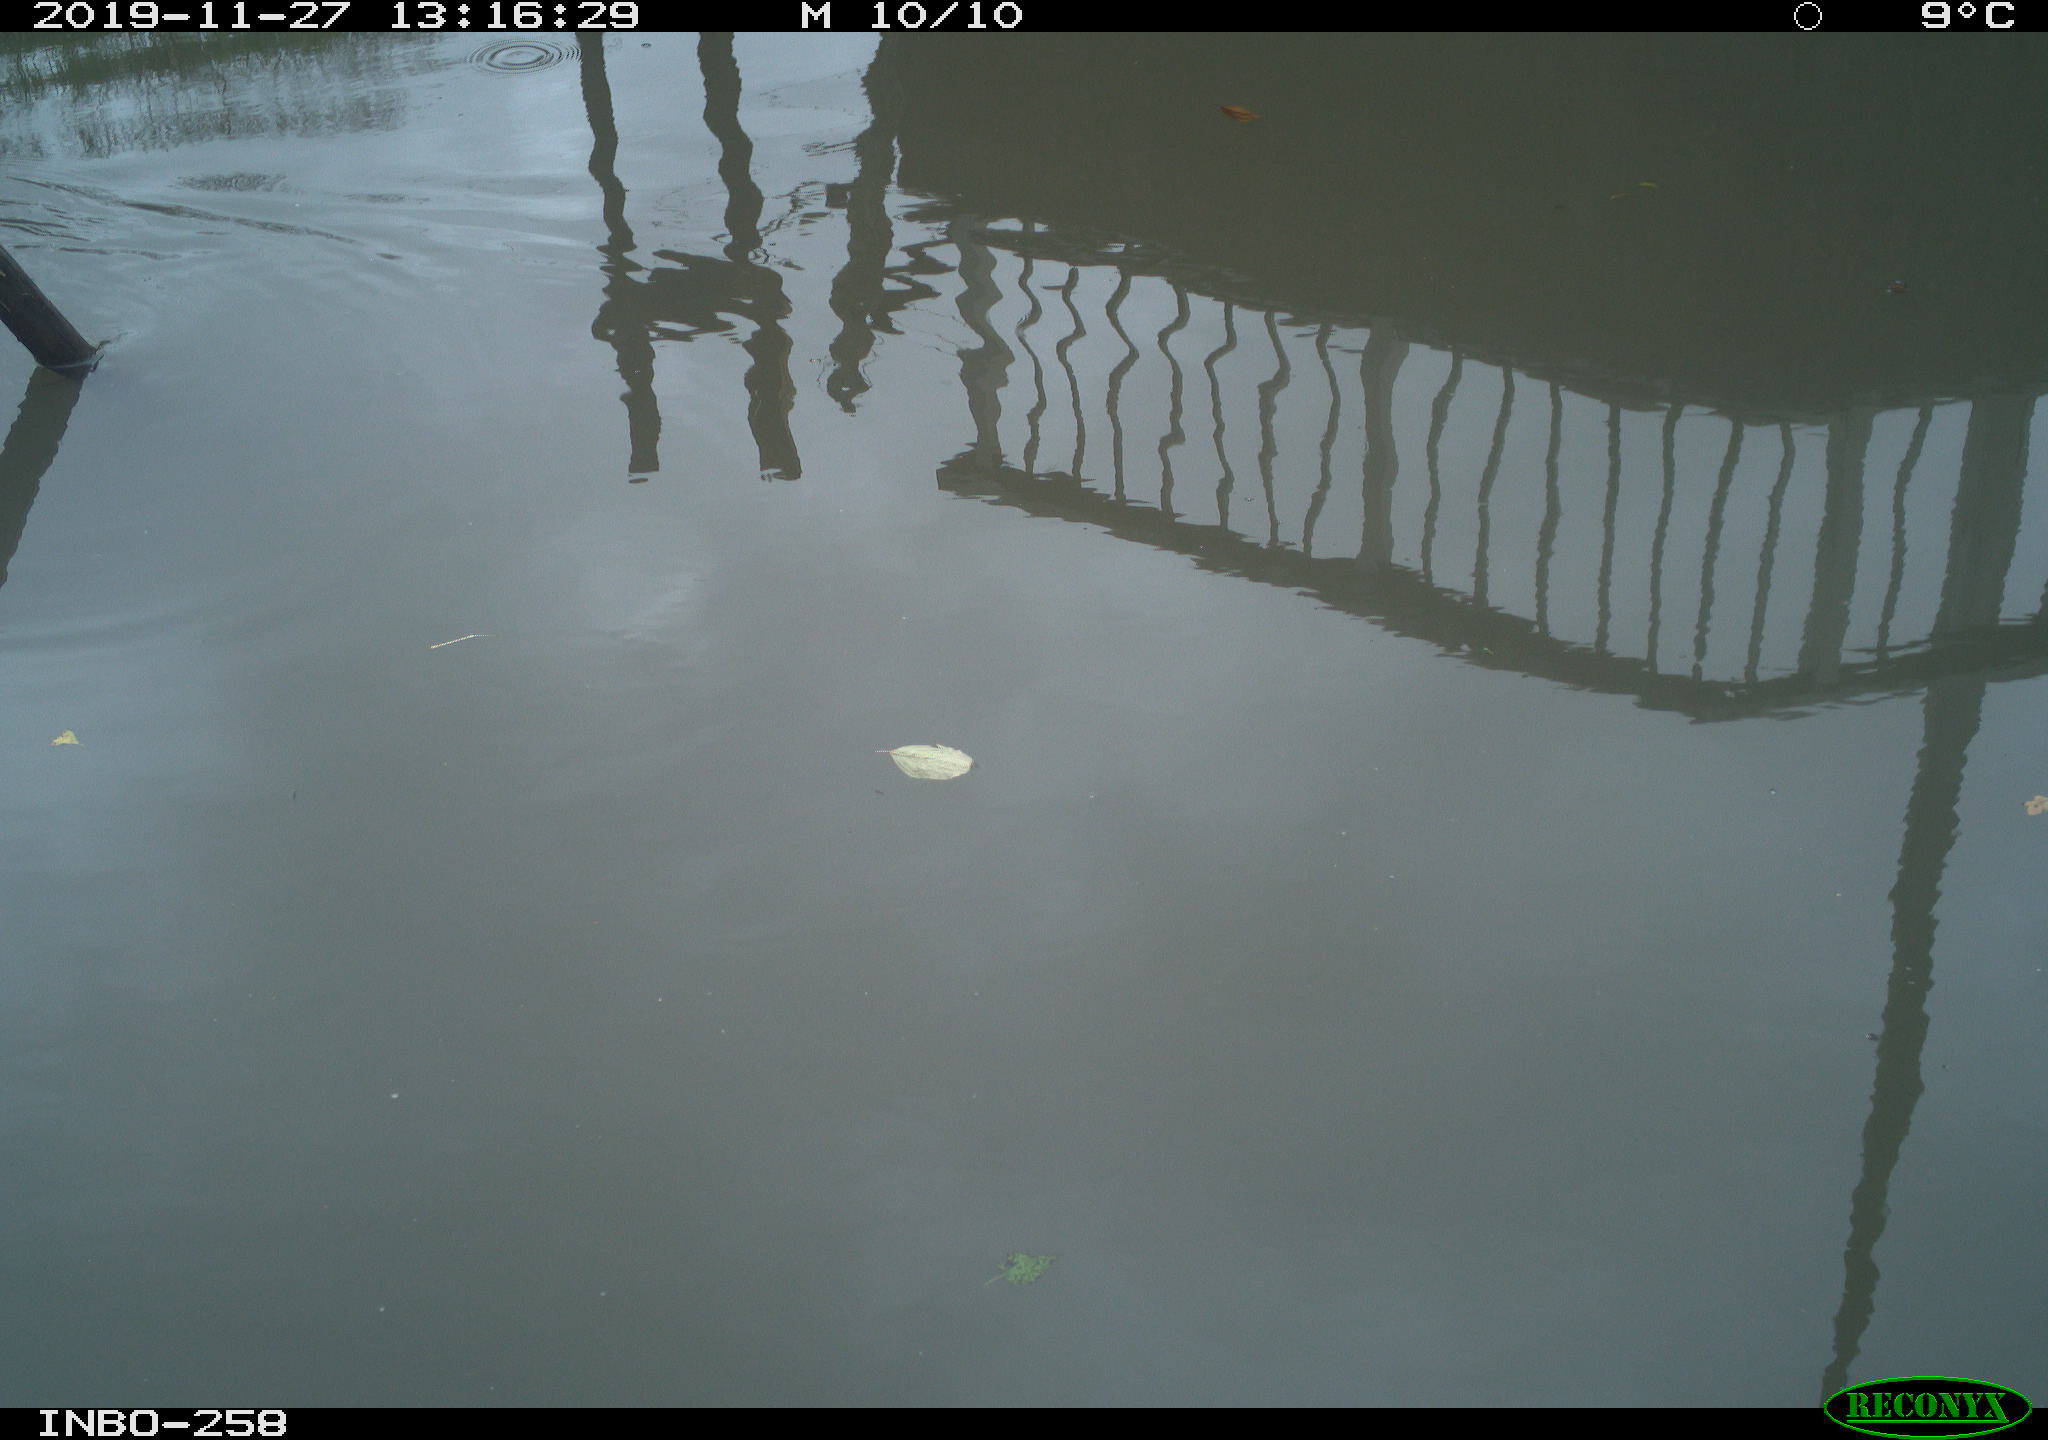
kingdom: Animalia
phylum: Chordata
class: Aves
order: Gruiformes
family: Rallidae
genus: Gallinula
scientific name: Gallinula chloropus
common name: Common moorhen
